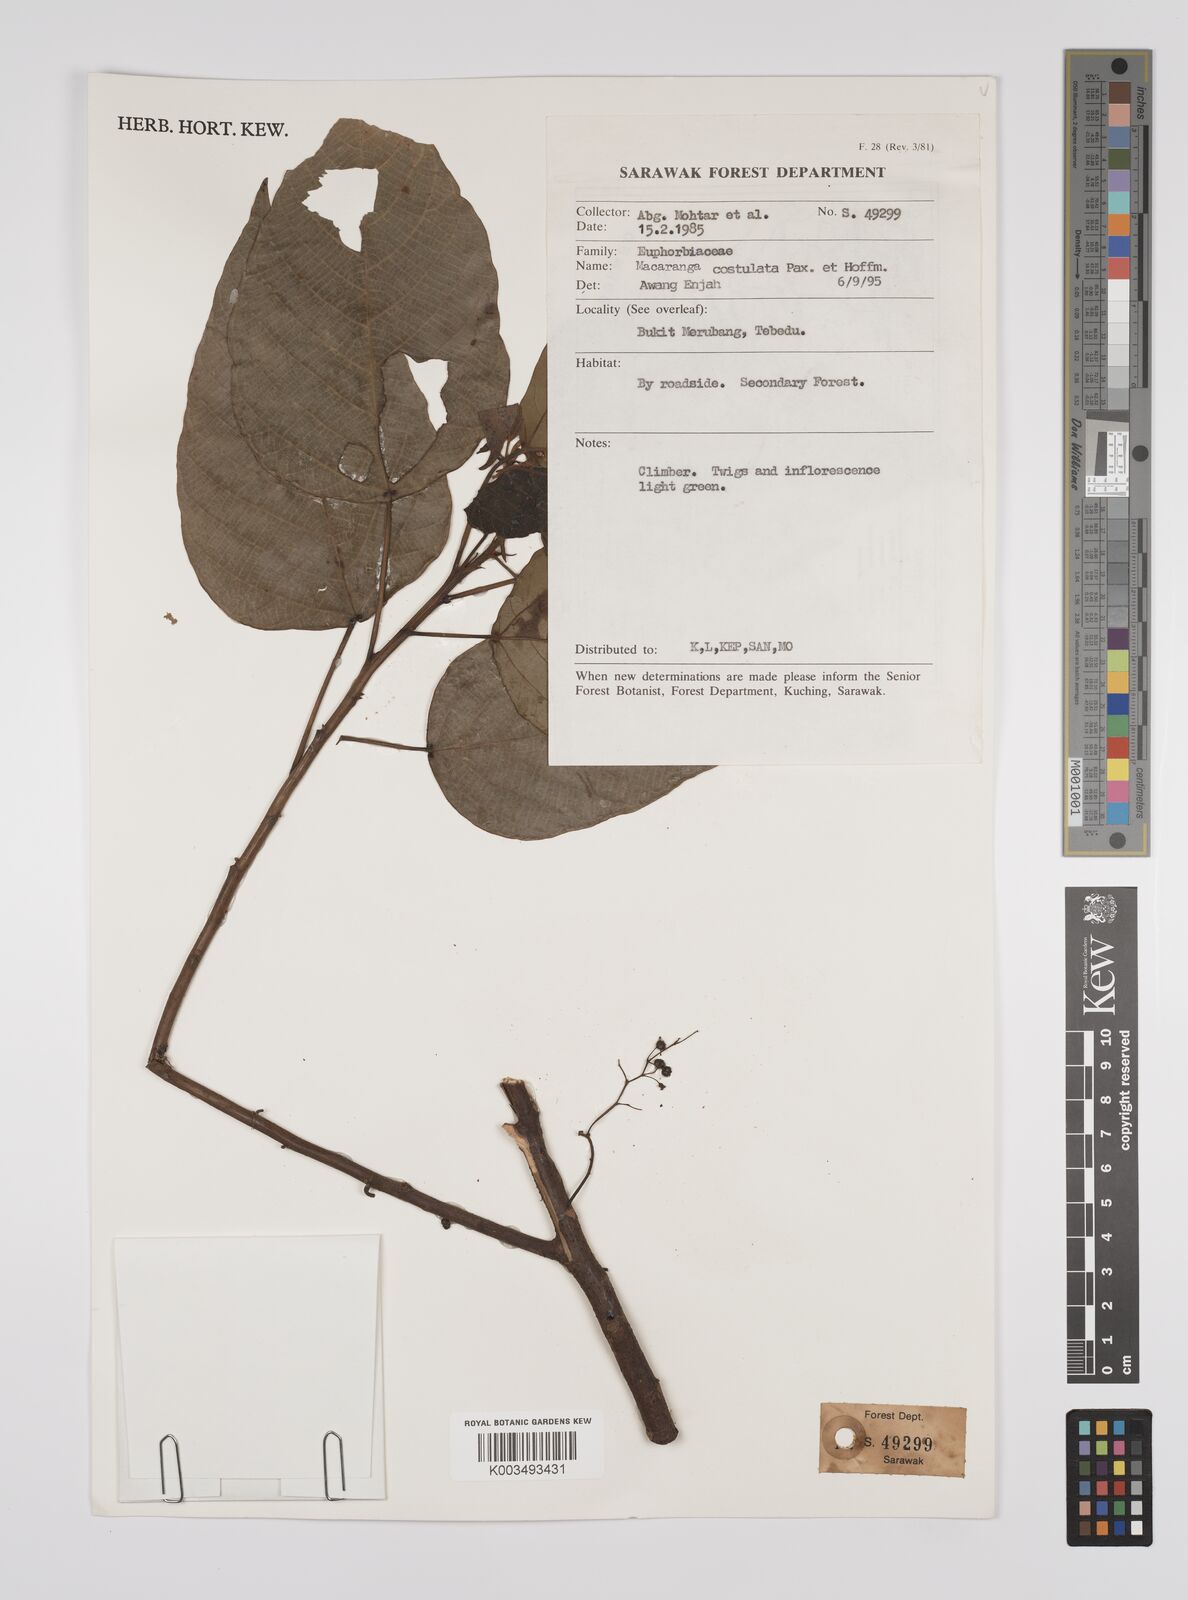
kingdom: Plantae
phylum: Tracheophyta
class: Magnoliopsida
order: Malpighiales
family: Euphorbiaceae
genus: Macaranga
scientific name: Macaranga costulata
